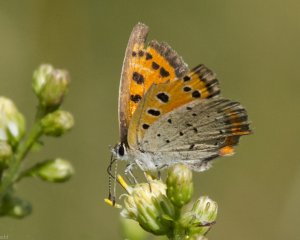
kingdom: Animalia
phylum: Arthropoda
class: Insecta
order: Lepidoptera
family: Lycaenidae
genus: Lycaena
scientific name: Lycaena phlaeas
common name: American Copper
